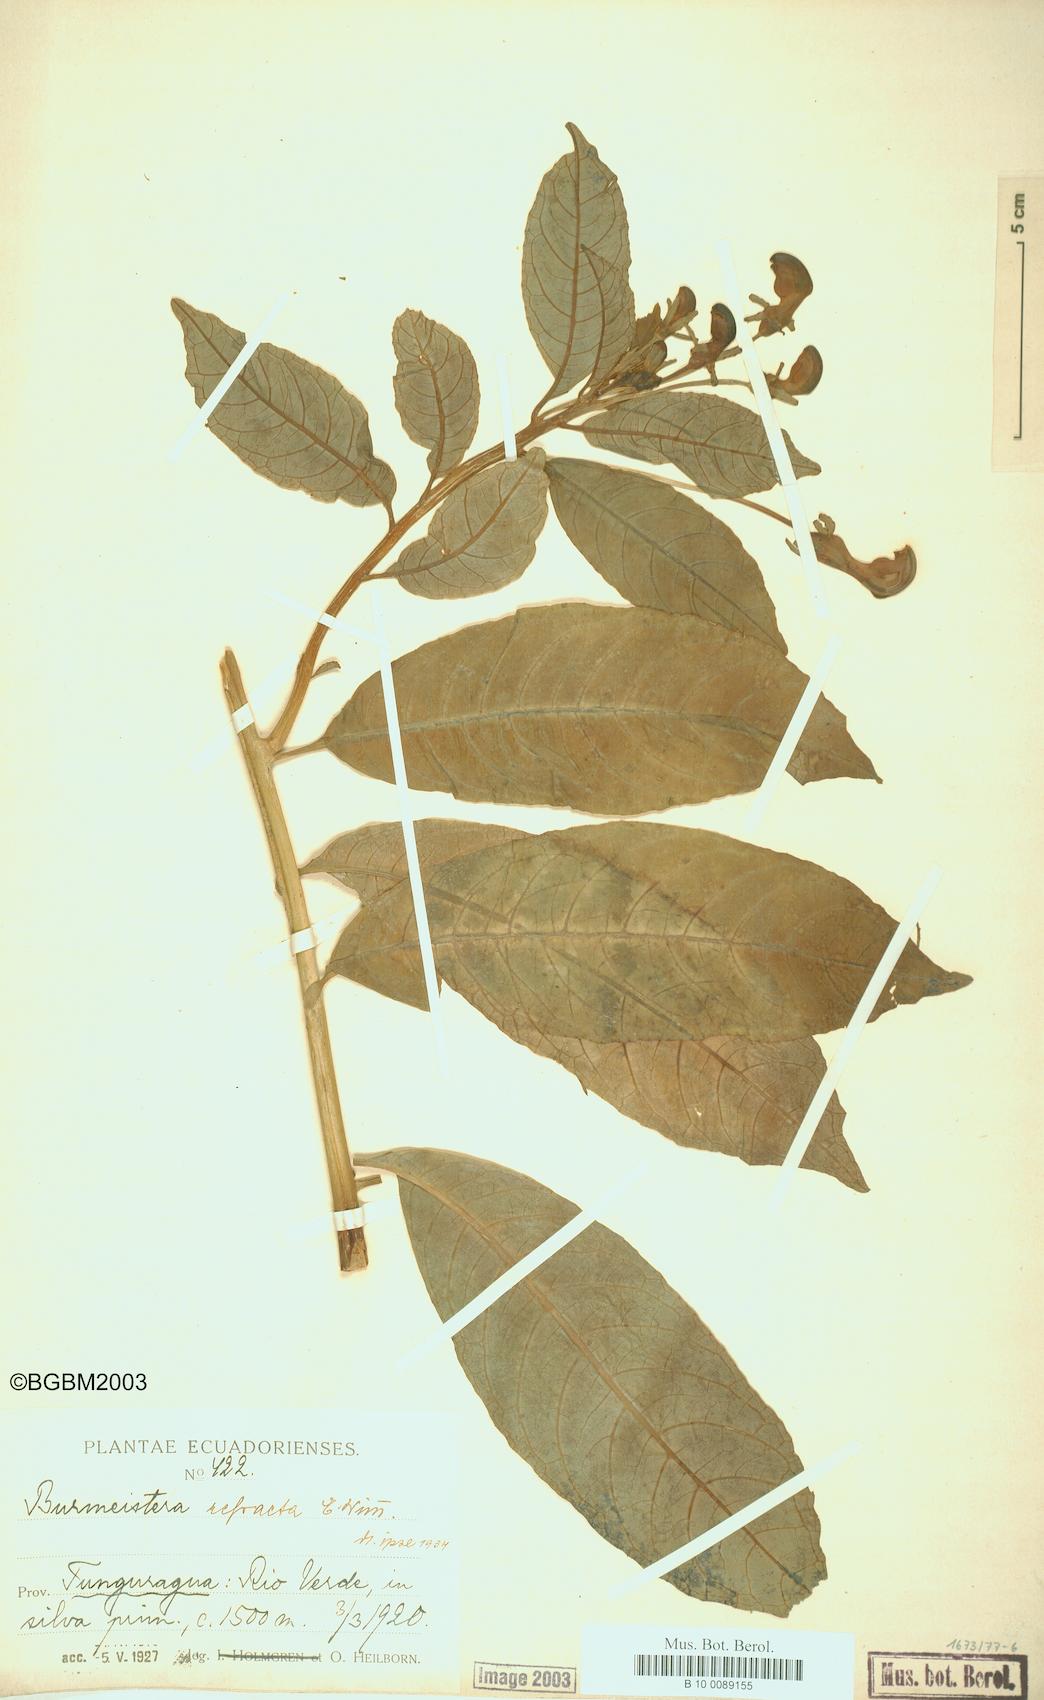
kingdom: Plantae
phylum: Tracheophyta
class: Magnoliopsida
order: Asterales
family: Campanulaceae
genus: Burmeistera
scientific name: Burmeistera refracta
